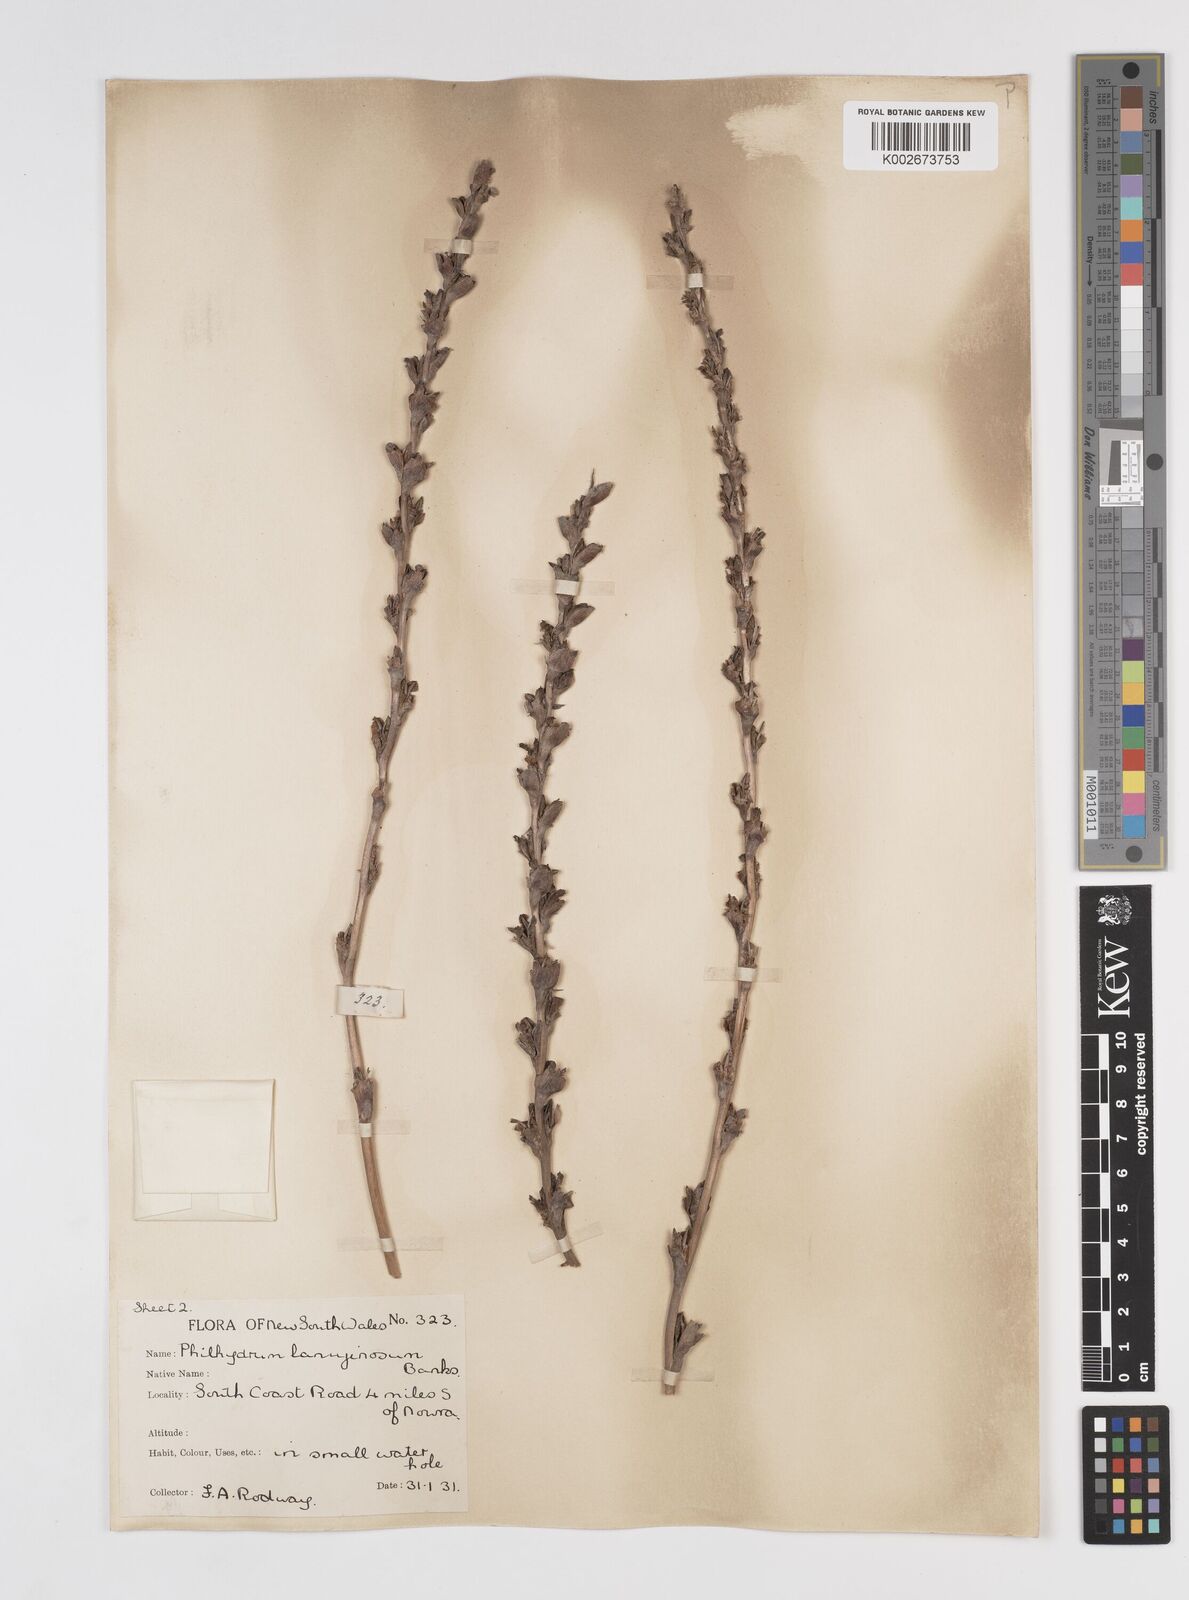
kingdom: Plantae
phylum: Tracheophyta
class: Liliopsida
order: Commelinales
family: Philydraceae
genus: Philydrum
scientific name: Philydrum lanuginosum
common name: Woolly frog's mouth
